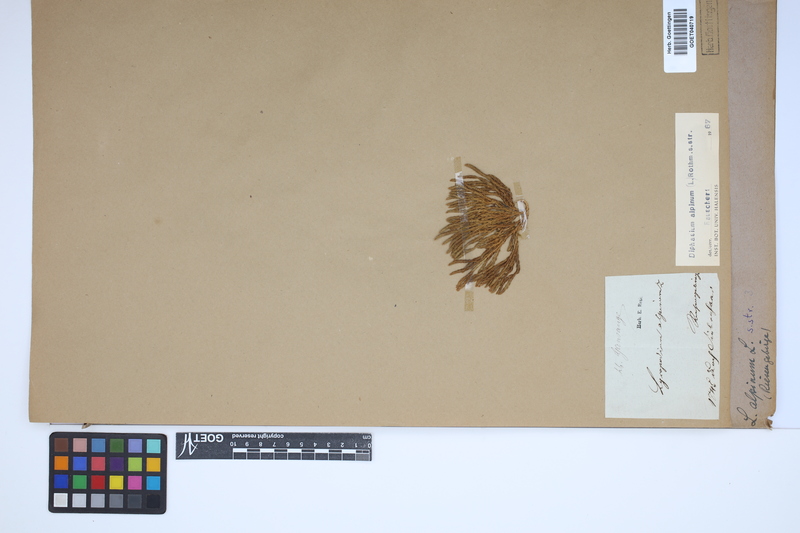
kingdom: Plantae
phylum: Tracheophyta
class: Lycopodiopsida
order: Lycopodiales
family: Lycopodiaceae
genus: Diphasiastrum
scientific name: Diphasiastrum alpinum
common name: Alpine clubmoss
